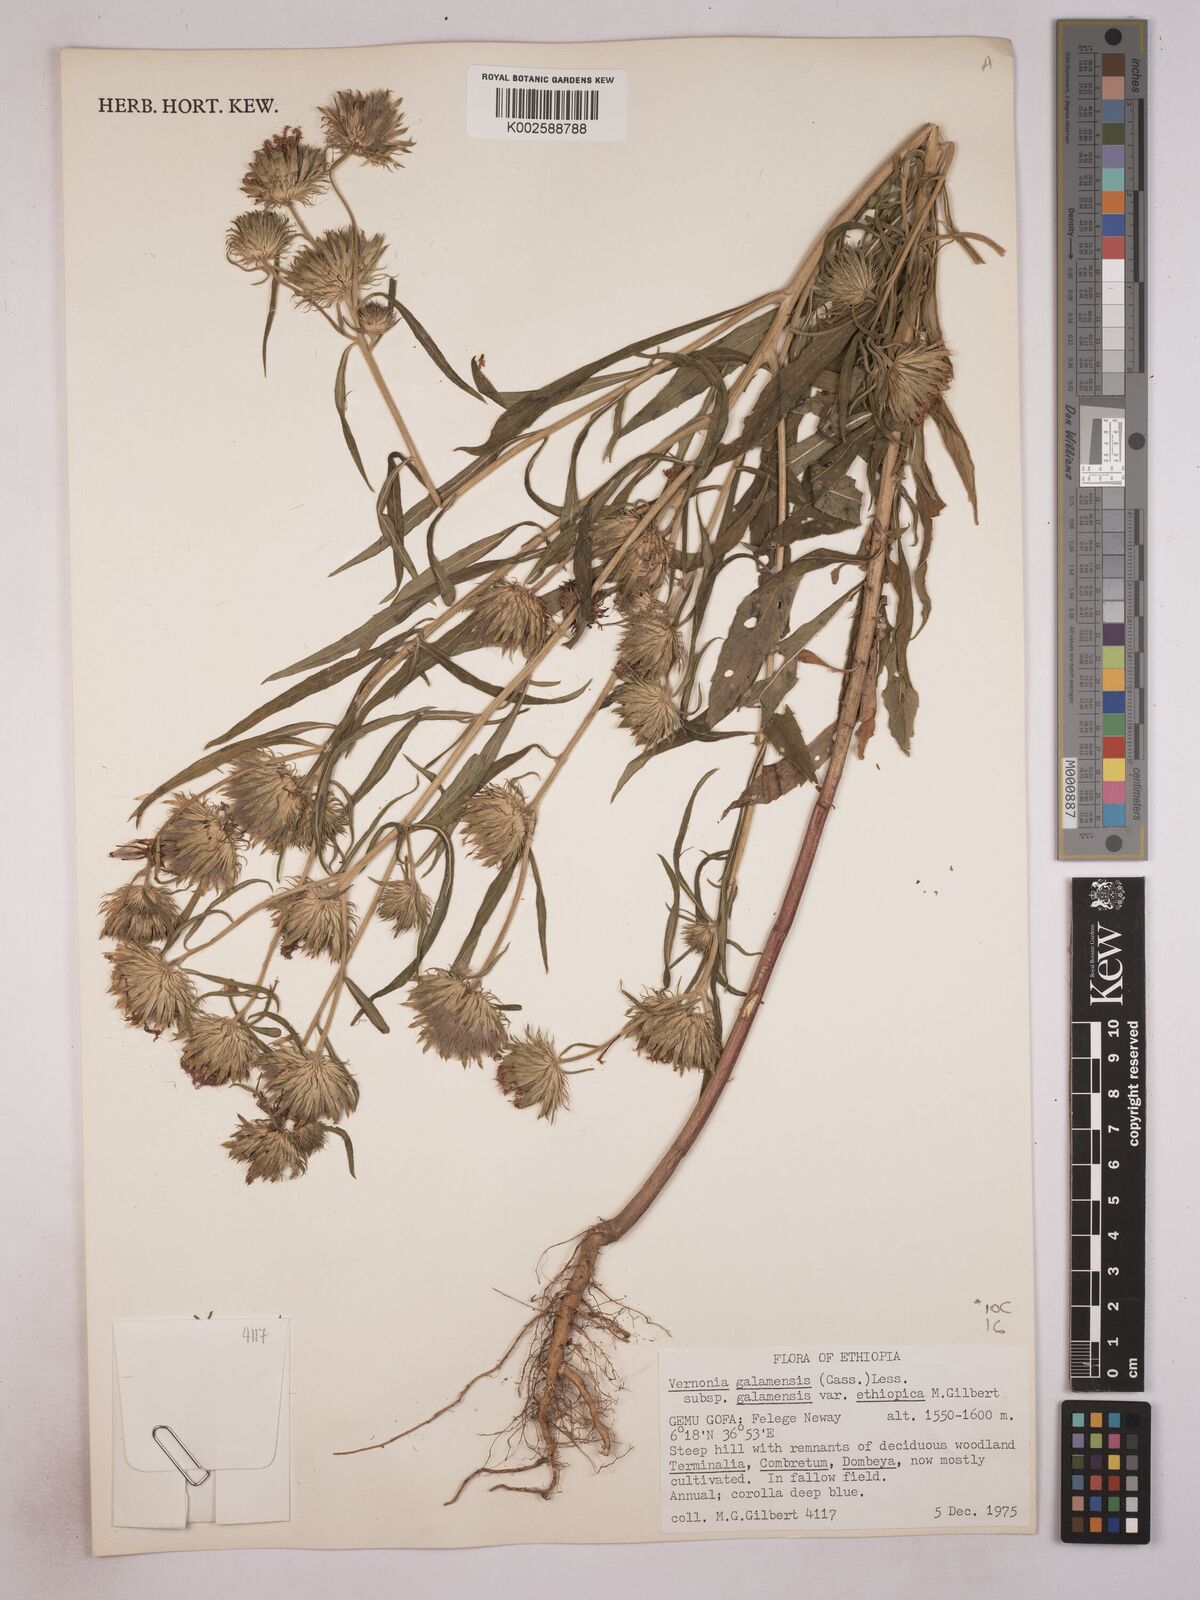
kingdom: Plantae
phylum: Tracheophyta
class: Magnoliopsida
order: Asterales
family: Asteraceae
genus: Vernonia
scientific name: Vernonia galamensis
